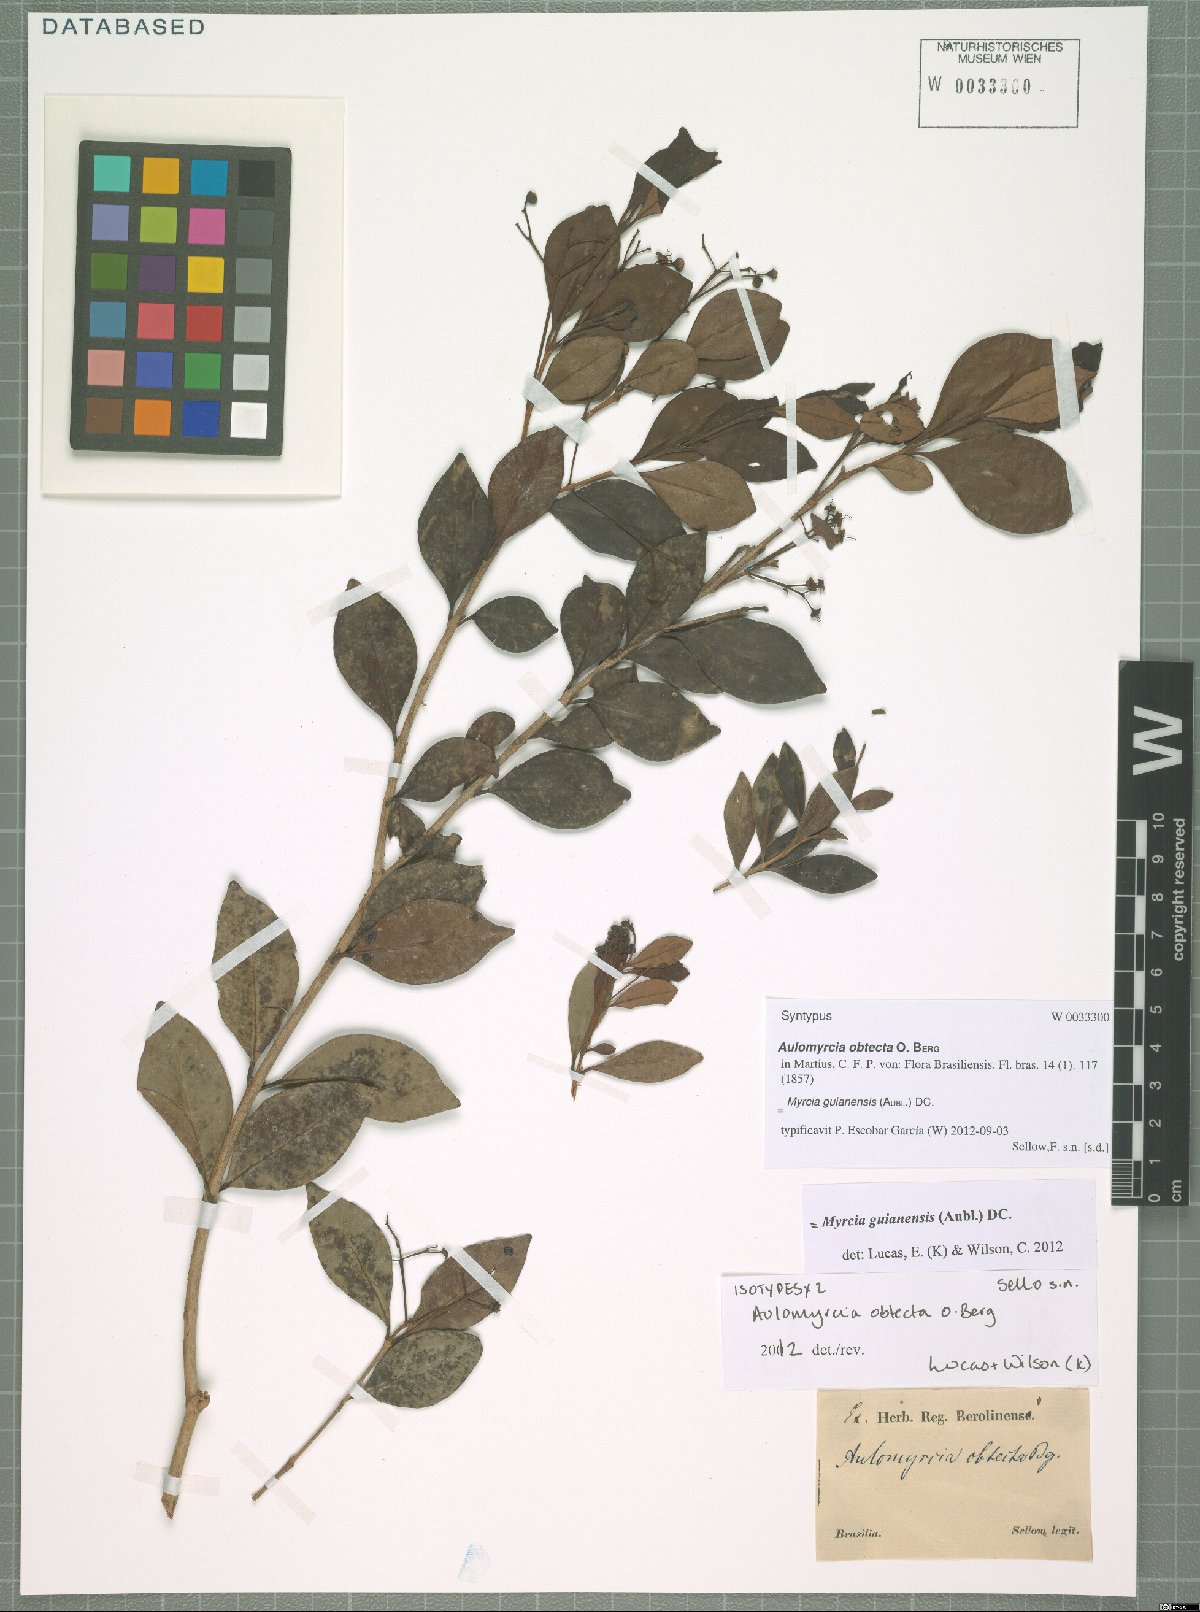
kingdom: Plantae
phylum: Tracheophyta
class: Magnoliopsida
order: Myrtales
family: Myrtaceae
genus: Myrcia
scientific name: Myrcia guianensis
